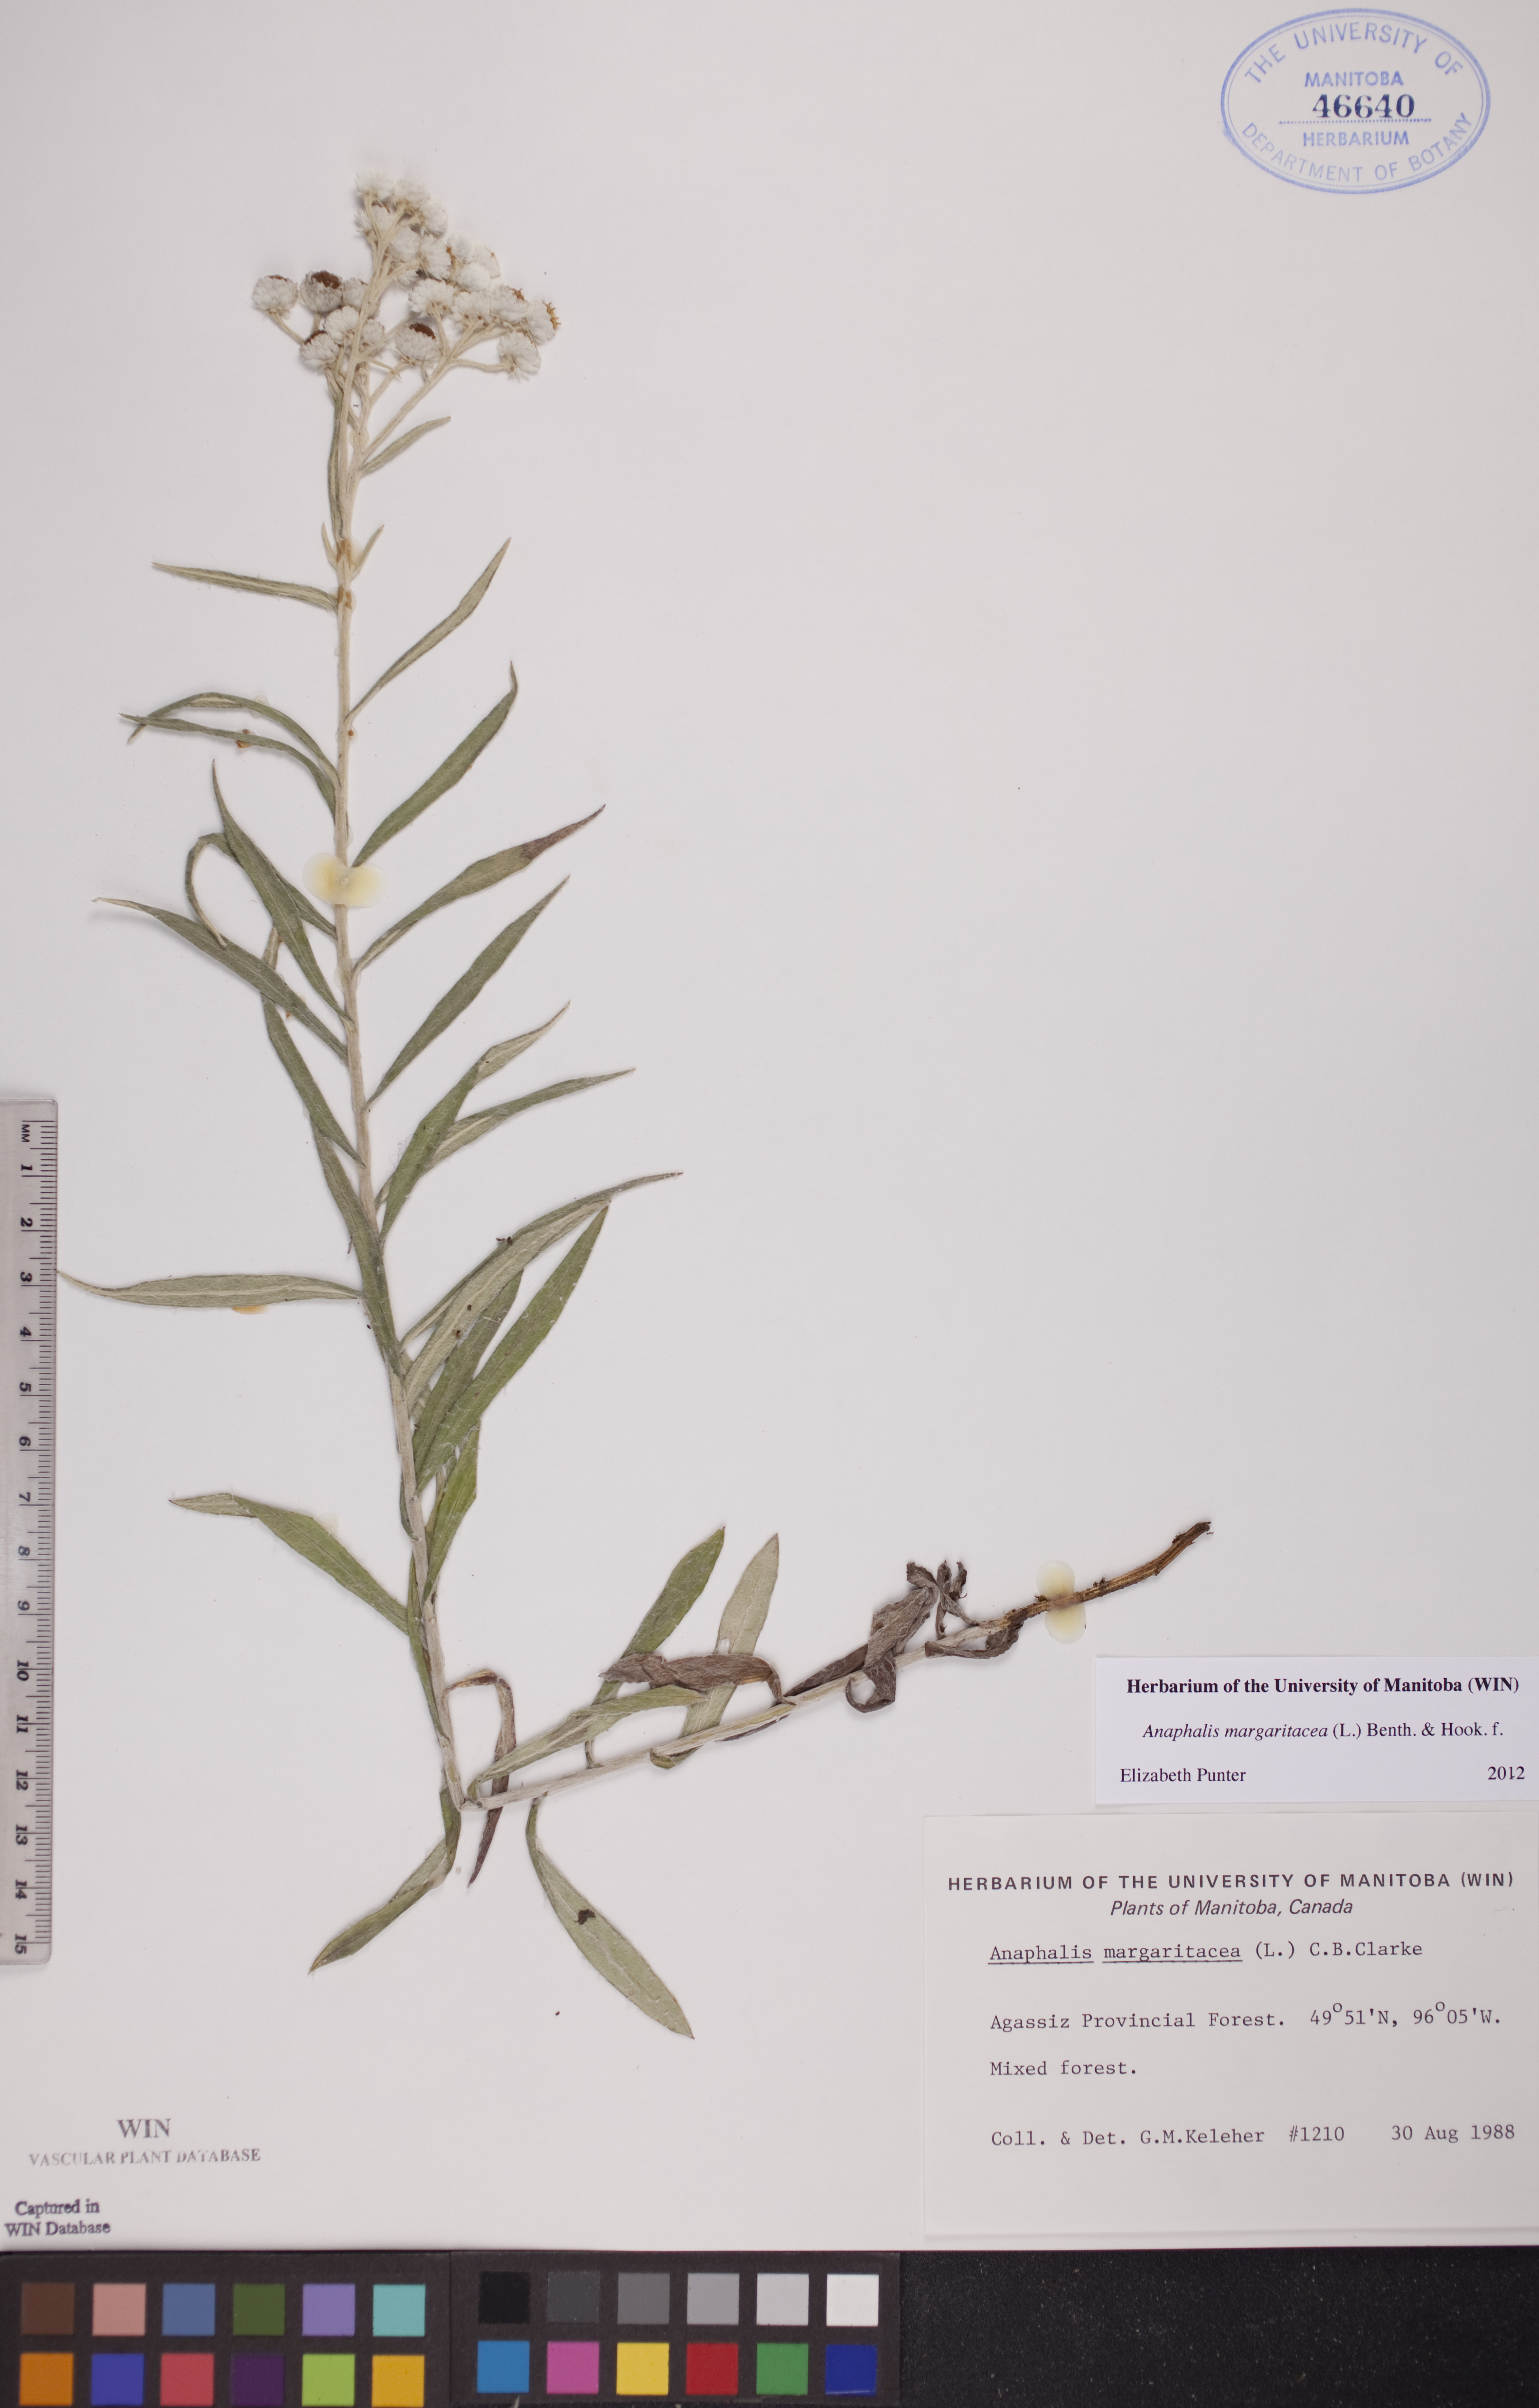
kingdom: Plantae
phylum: Tracheophyta
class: Magnoliopsida
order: Asterales
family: Asteraceae
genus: Anaphalis
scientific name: Anaphalis margaritacea
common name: Pearly everlasting
